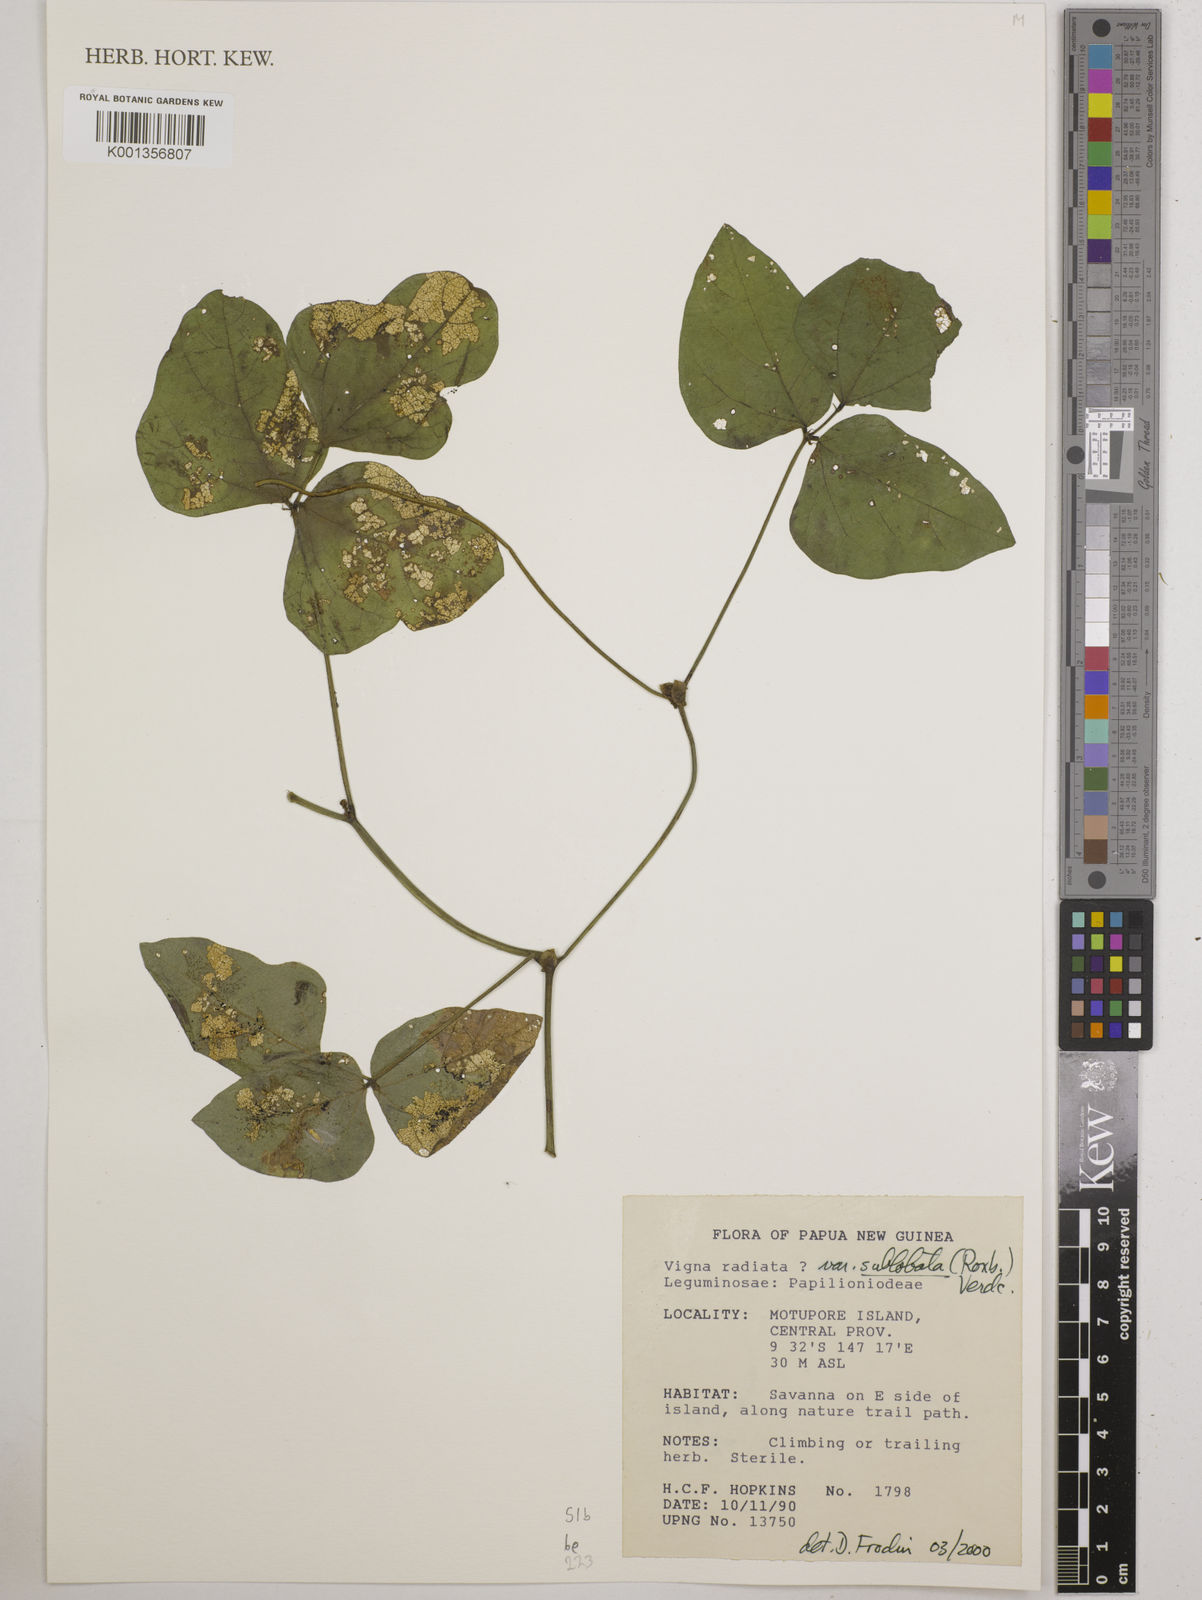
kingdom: Plantae
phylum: Tracheophyta
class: Magnoliopsida
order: Fabales
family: Fabaceae
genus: Vigna
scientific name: Vigna radiata
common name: Mung-bean
